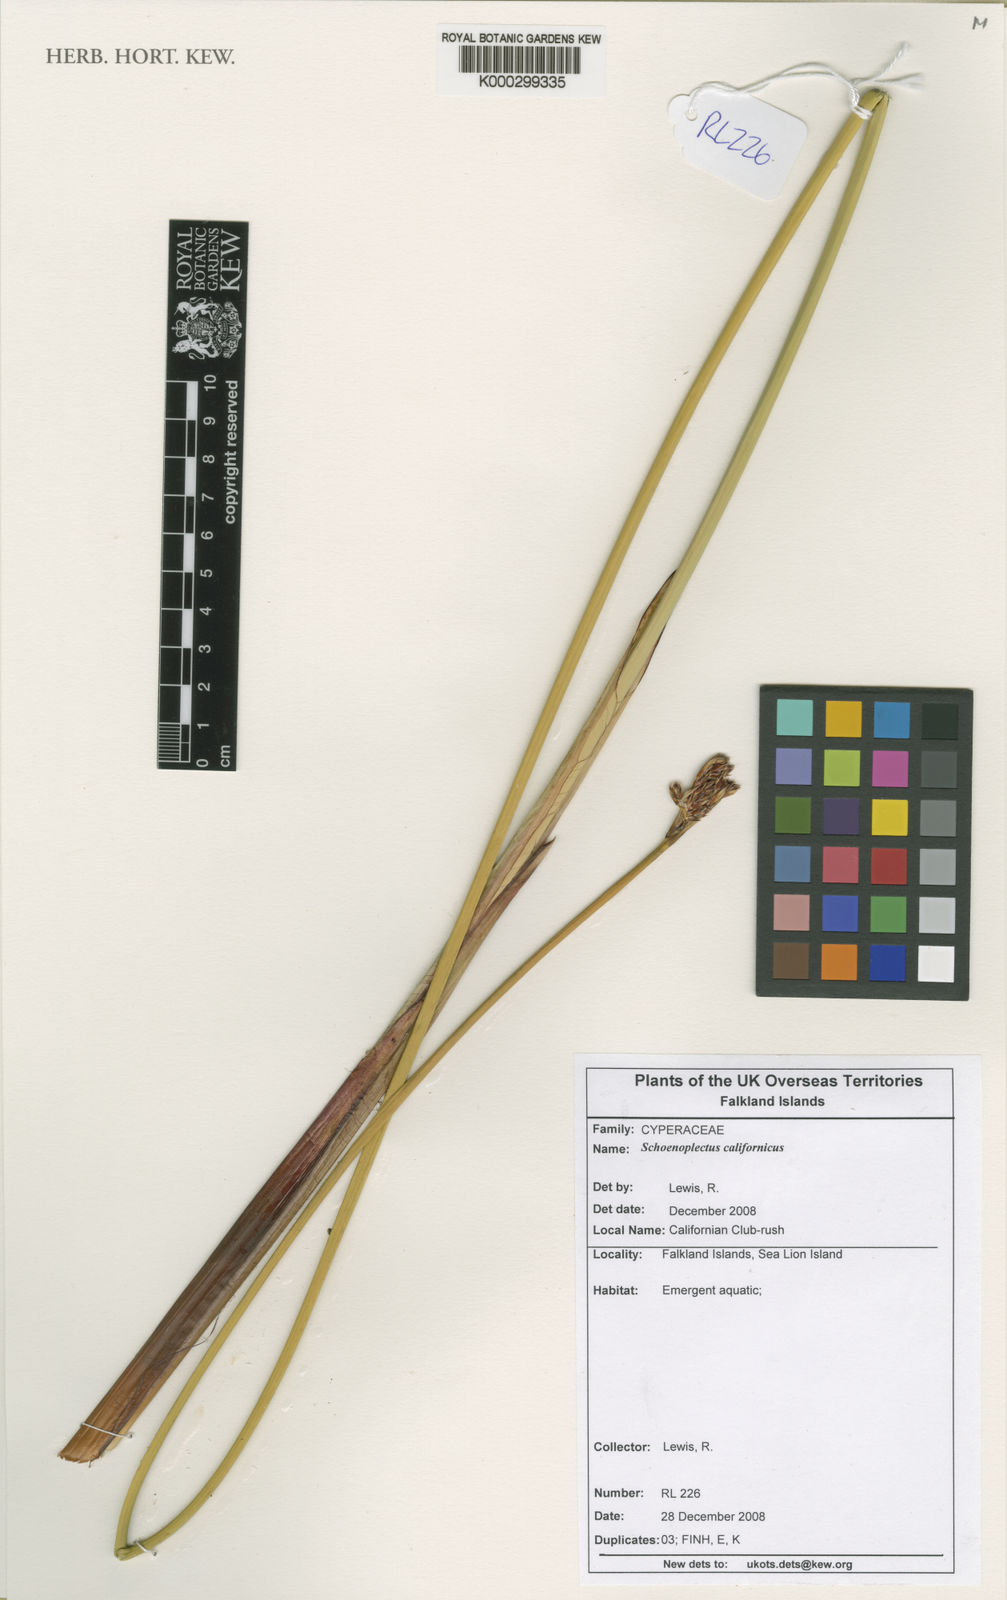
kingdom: Plantae
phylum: Tracheophyta
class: Liliopsida
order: Poales
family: Cyperaceae
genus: Schoenoplectus
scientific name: Schoenoplectus californicus
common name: California bulrush
